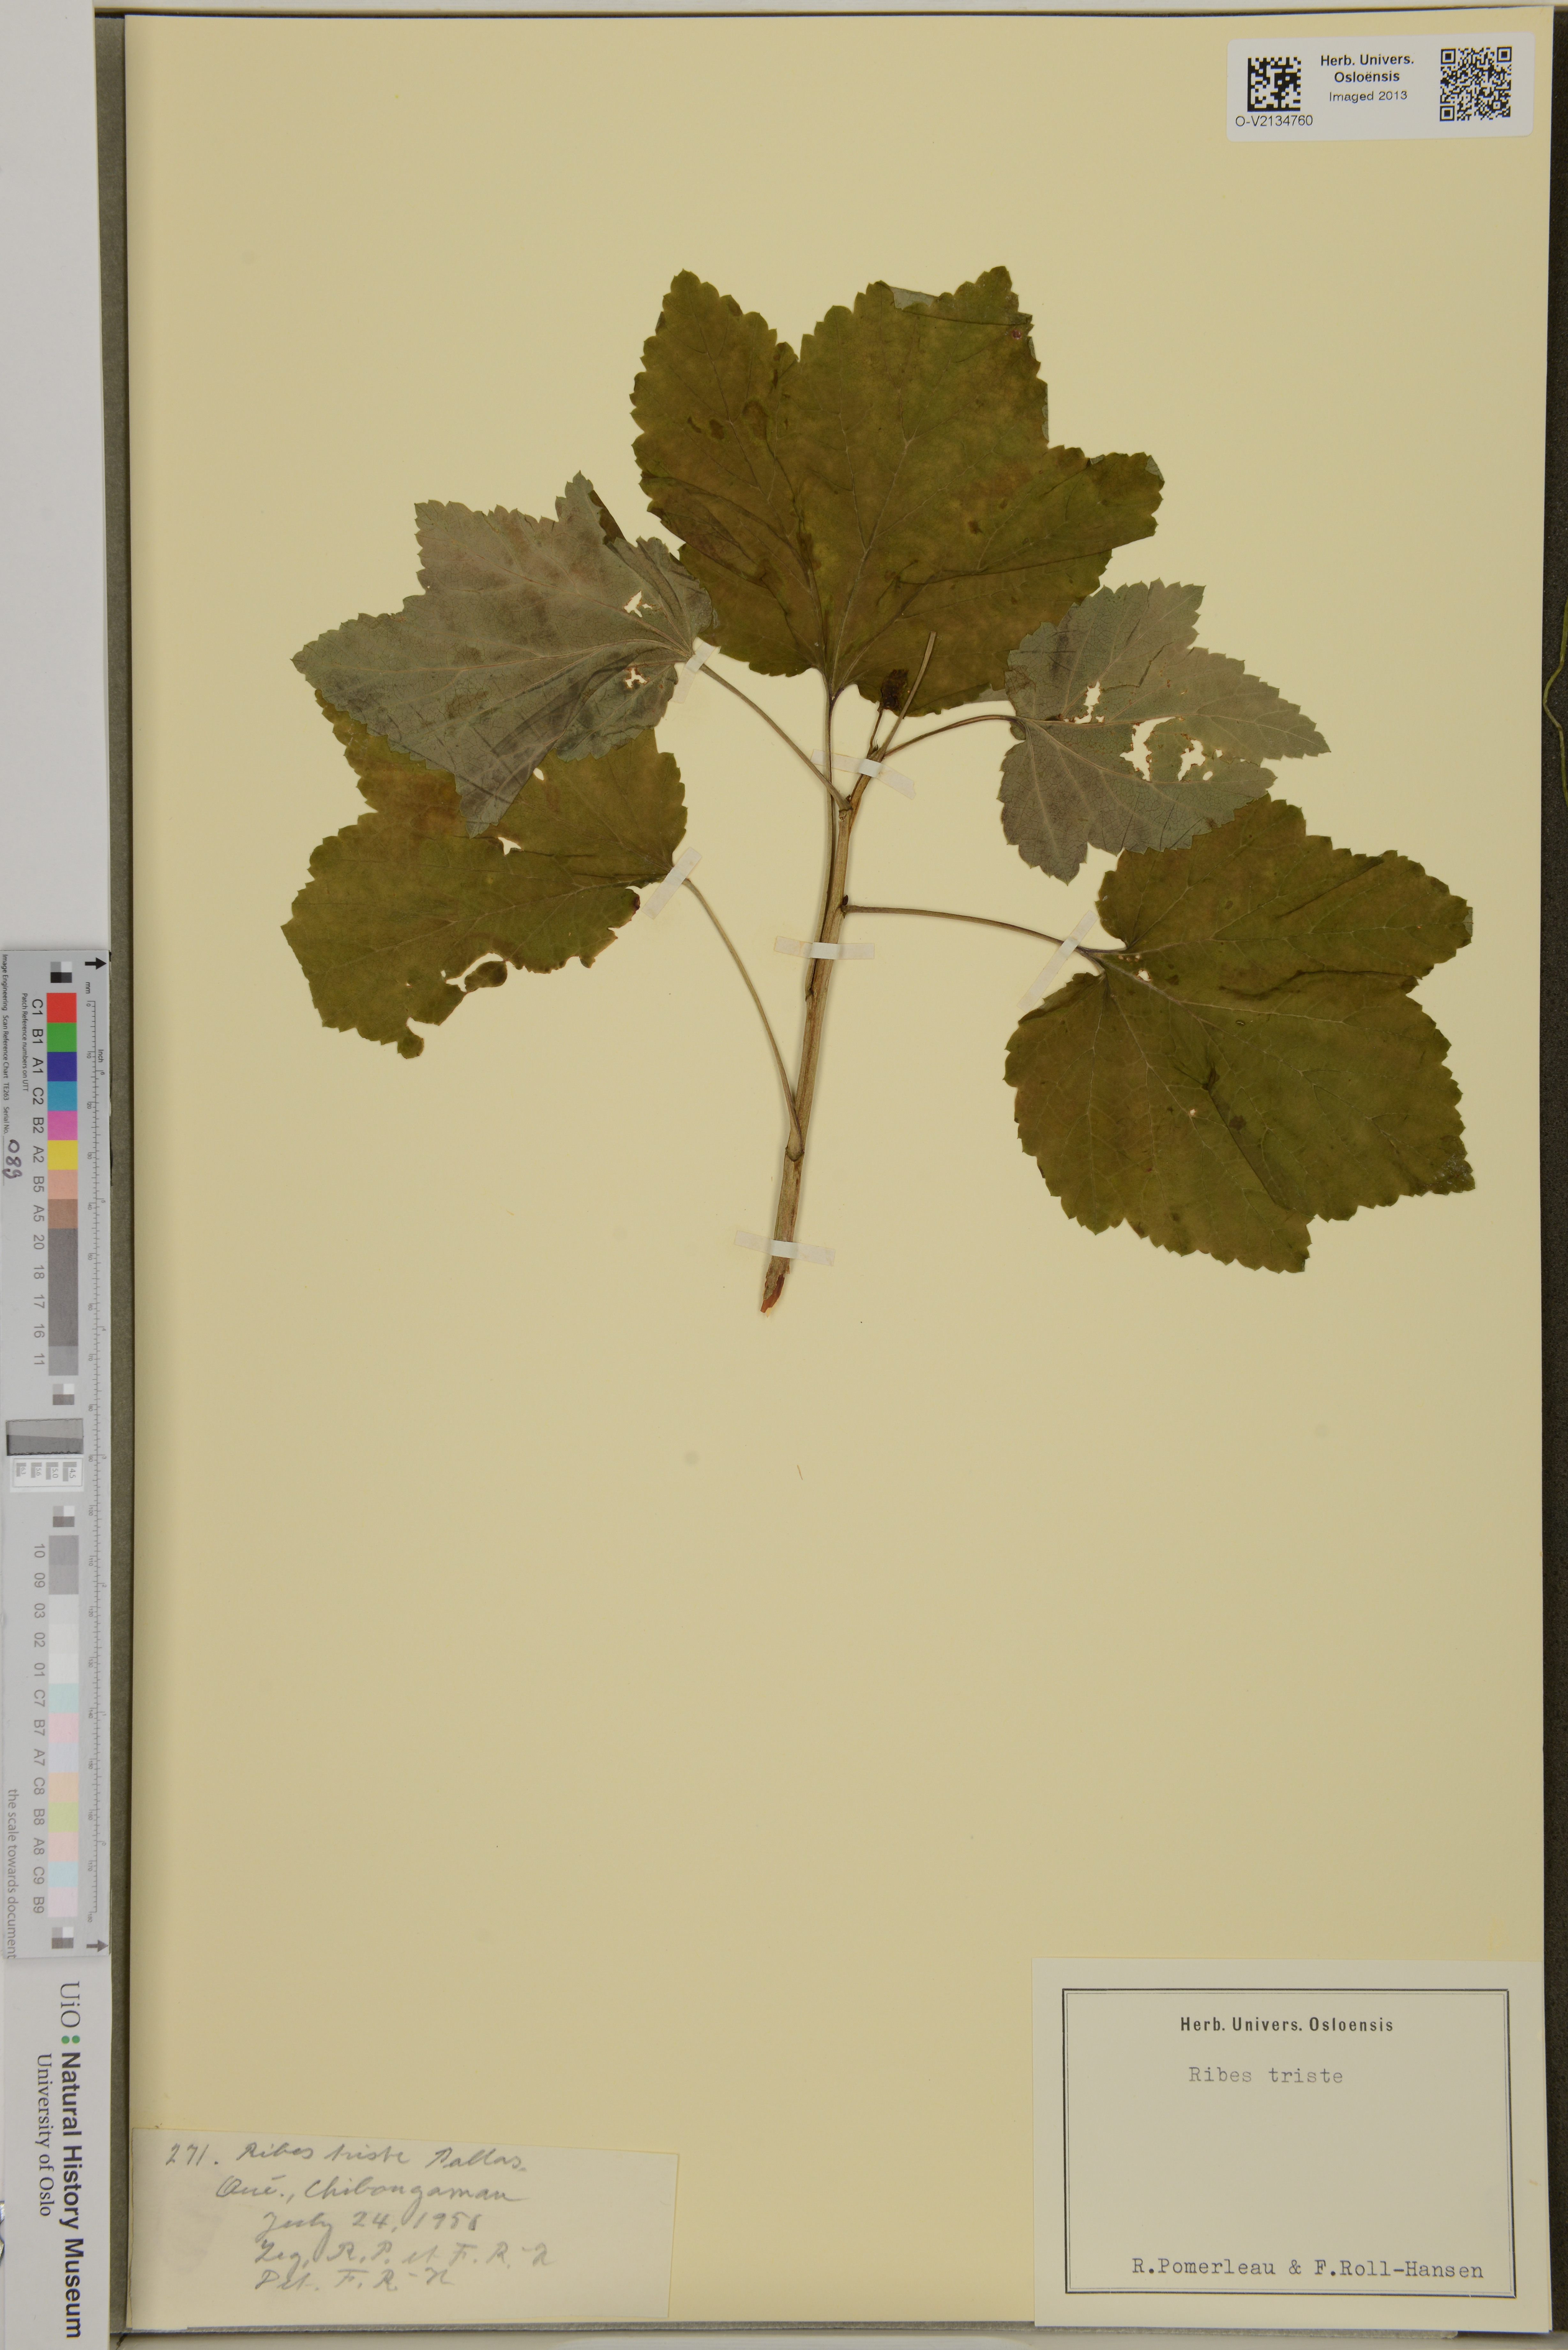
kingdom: Plantae
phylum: Tracheophyta
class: Magnoliopsida
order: Saxifragales
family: Grossulariaceae
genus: Ribes
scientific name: Ribes triste
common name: Swamp red currant
